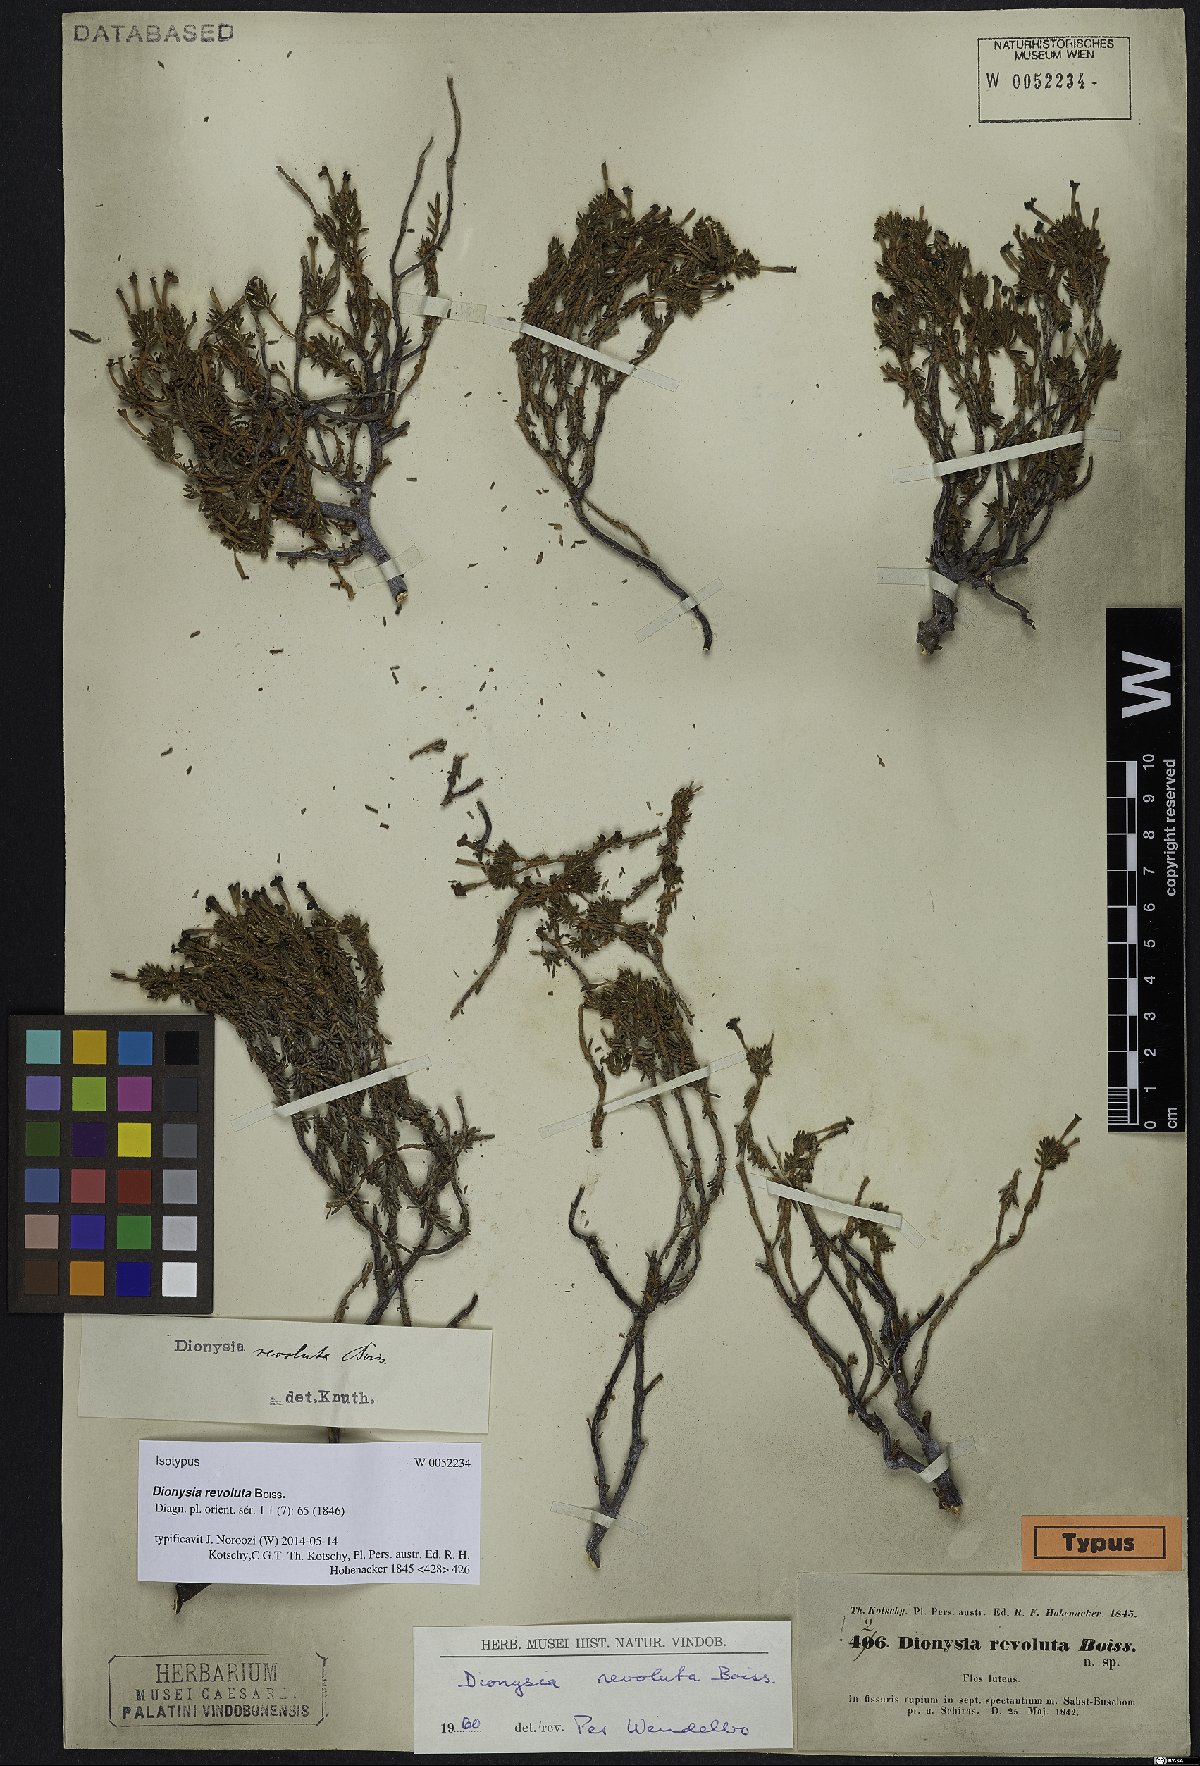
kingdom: Plantae
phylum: Tracheophyta
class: Magnoliopsida
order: Ericales
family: Primulaceae
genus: Dionysia
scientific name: Dionysia revoluta
